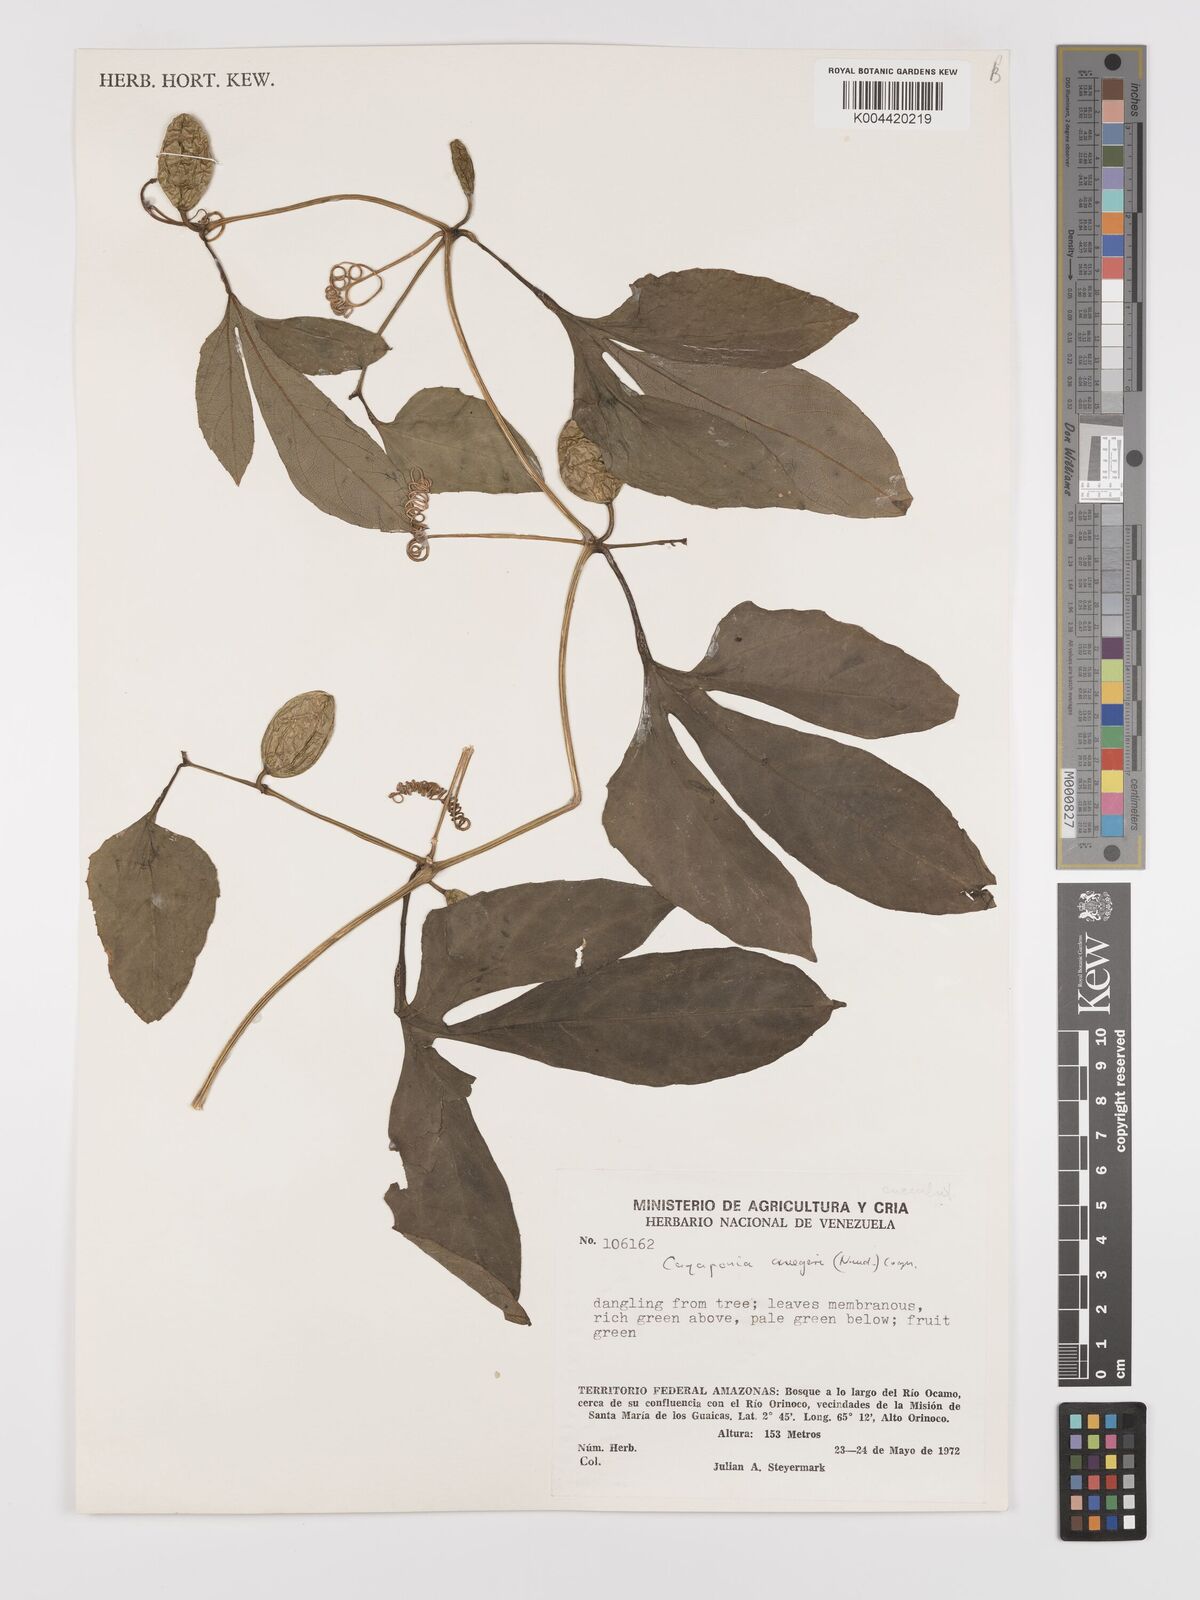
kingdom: Plantae
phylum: Tracheophyta
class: Magnoliopsida
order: Cucurbitales
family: Cucurbitaceae
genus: Cayaponia
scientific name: Cayaponia cruegeri
